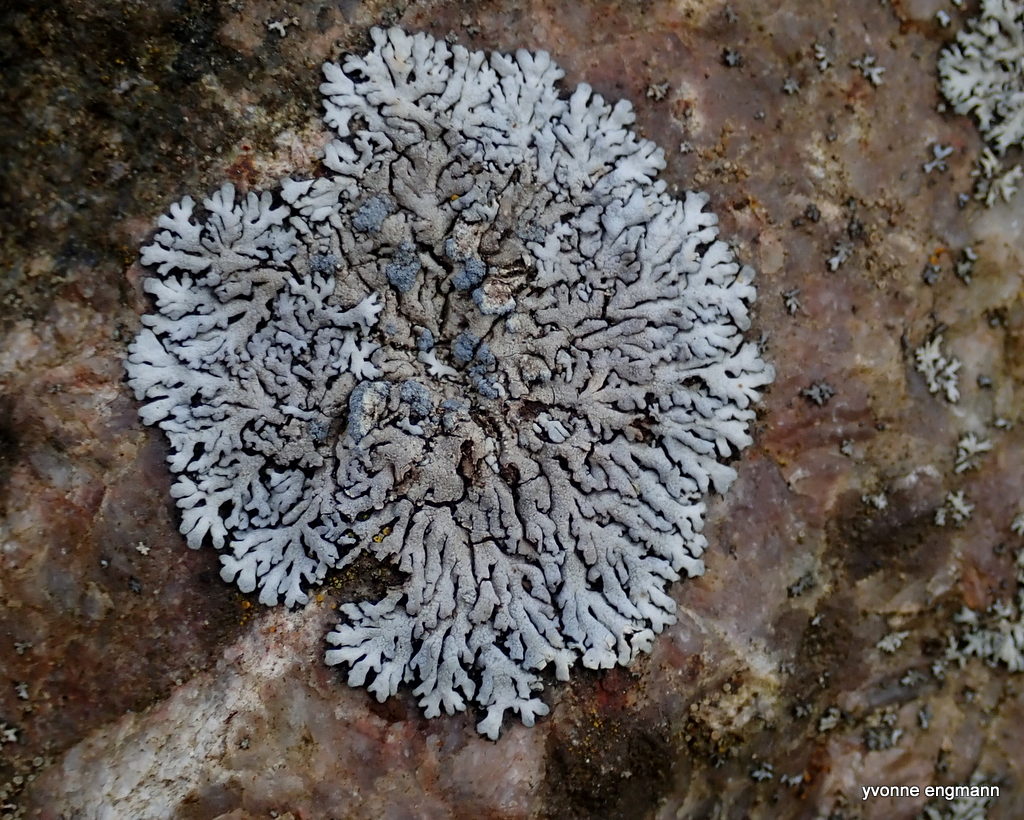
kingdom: Fungi
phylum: Ascomycota
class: Lecanoromycetes
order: Caliciales
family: Physciaceae
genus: Physcia
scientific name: Physcia caesia
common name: blågrå rosetlav
